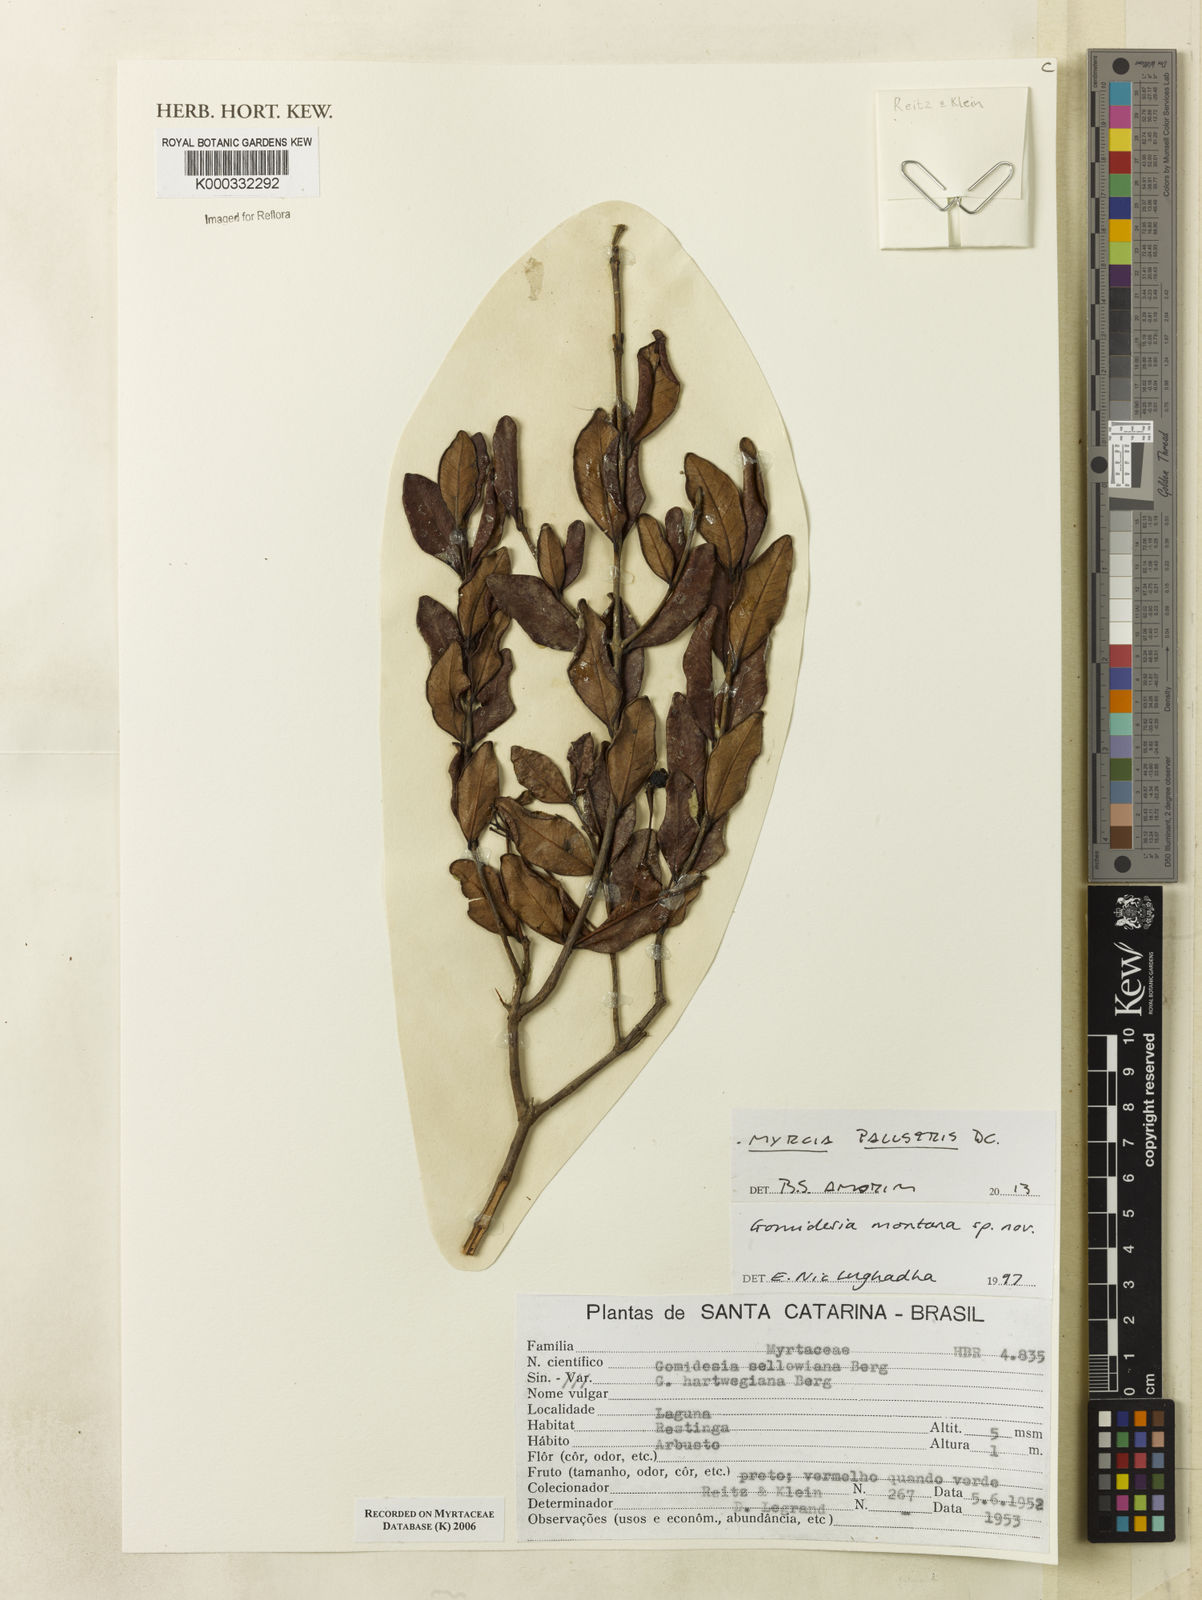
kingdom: Plantae
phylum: Tracheophyta
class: Magnoliopsida
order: Myrtales
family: Myrtaceae
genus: Myrcia
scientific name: Myrcia
